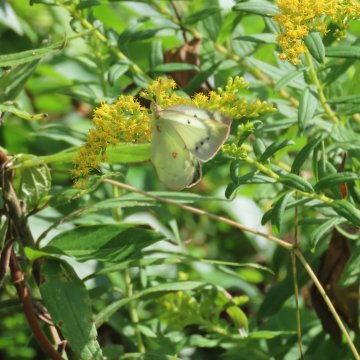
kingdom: Animalia
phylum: Arthropoda
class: Insecta
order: Lepidoptera
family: Pieridae
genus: Colias
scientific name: Colias eurytheme
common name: Orange Sulphur
